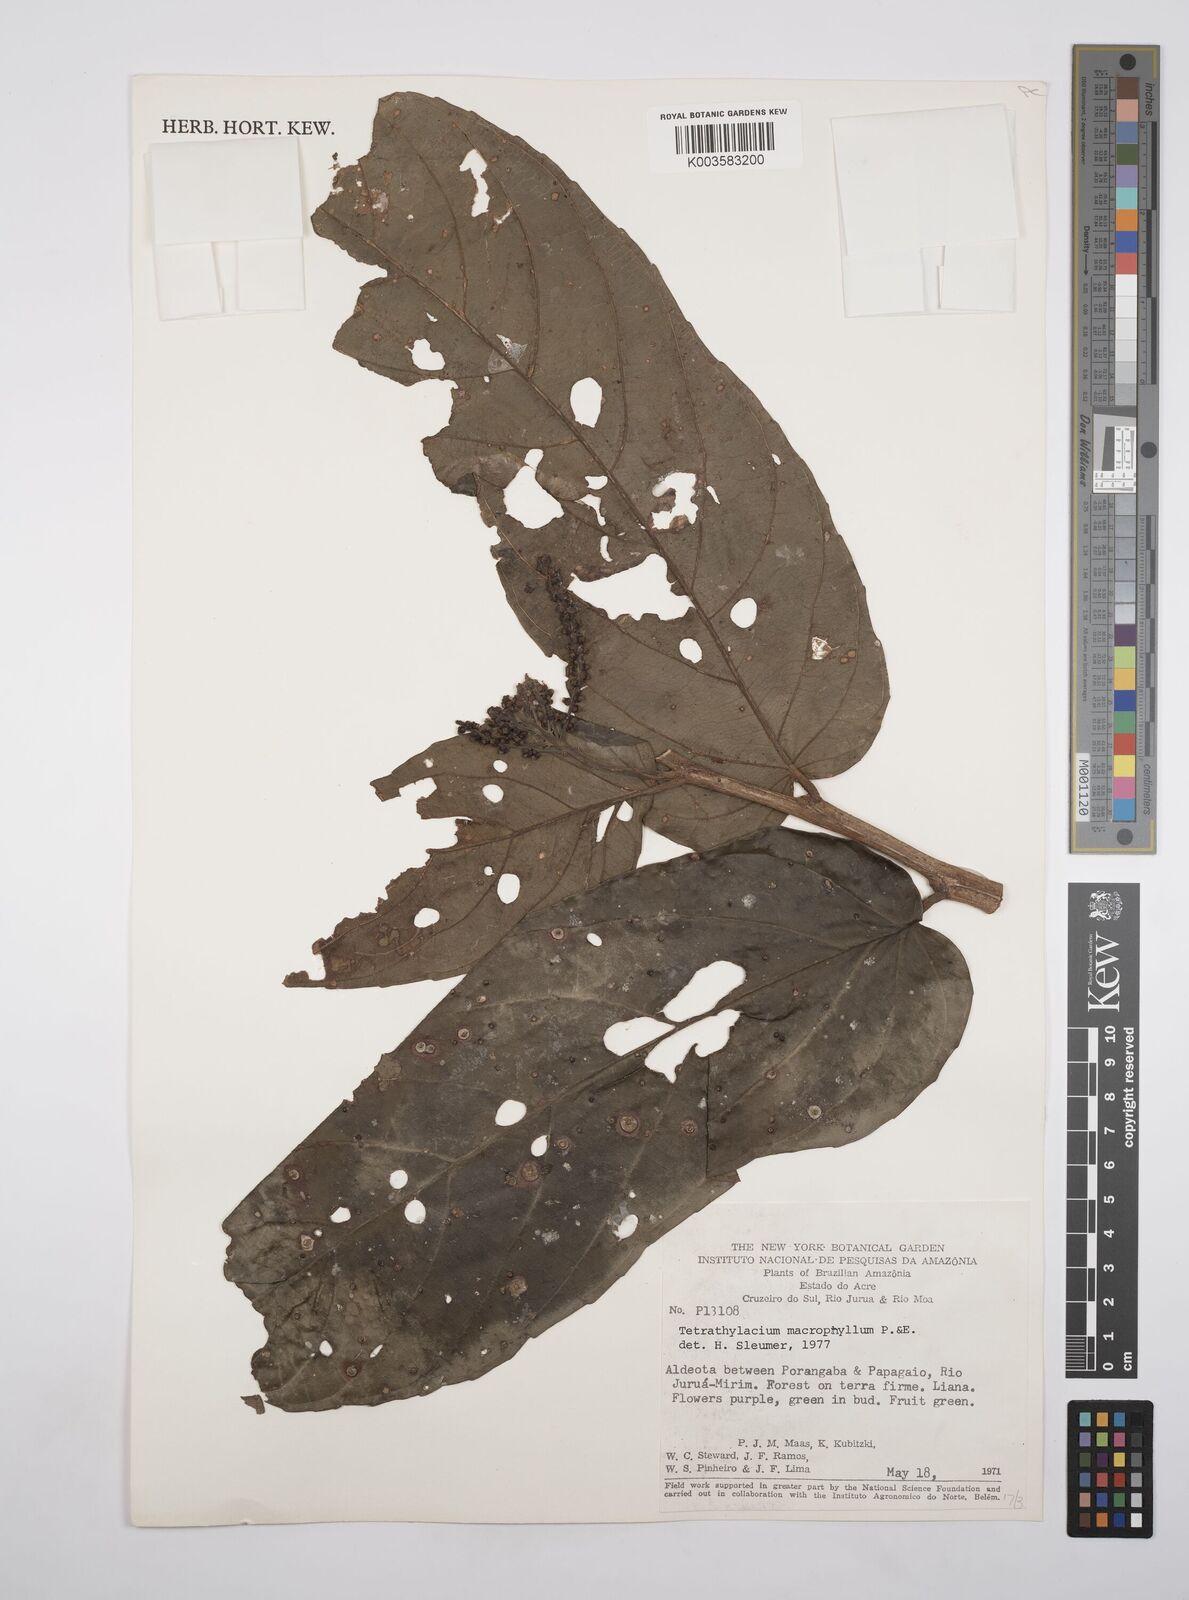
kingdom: Plantae
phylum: Tracheophyta
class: Magnoliopsida
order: Malpighiales
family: Salicaceae
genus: Tetrathylacium
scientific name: Tetrathylacium macrophyllum
